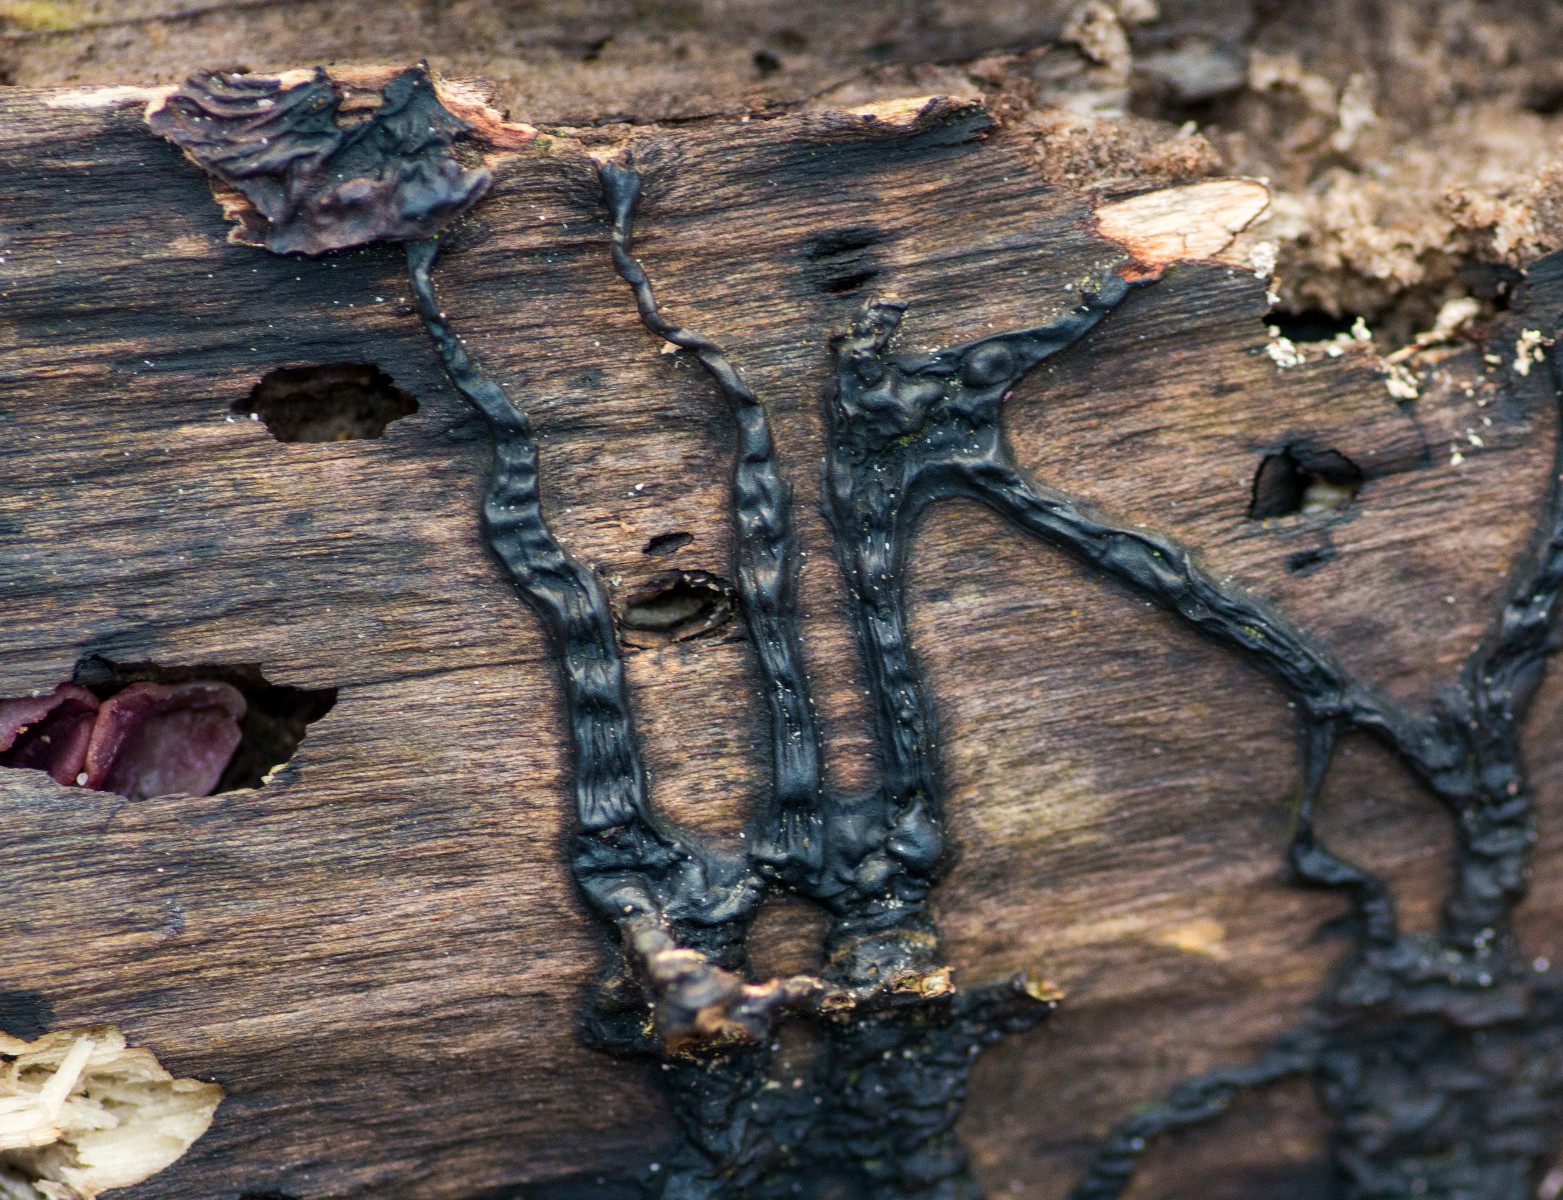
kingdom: Fungi
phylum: Basidiomycota
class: Agaricomycetes
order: Auriculariales
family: Auriculariaceae
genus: Exidia
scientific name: Exidia nigricans
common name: almindelig bævretop
